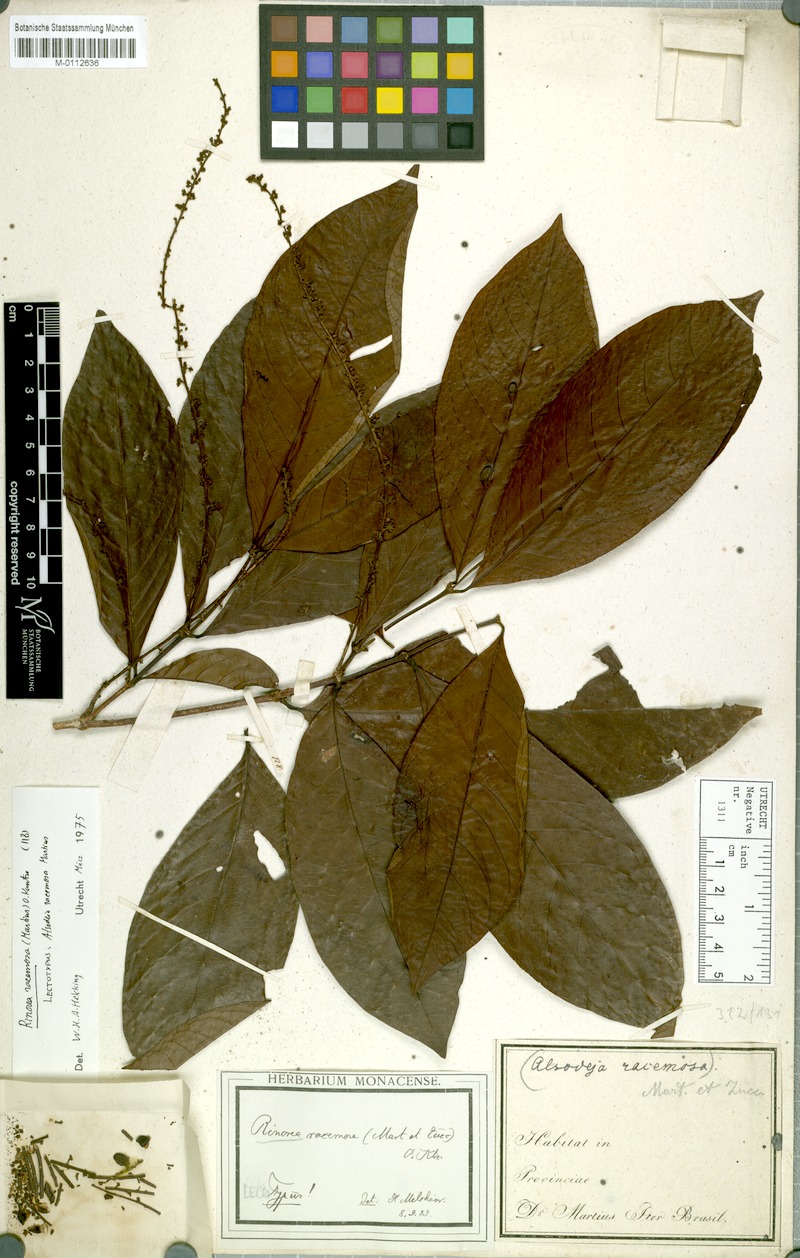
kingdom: Plantae
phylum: Tracheophyta
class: Magnoliopsida
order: Malpighiales
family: Violaceae
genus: Rinorea
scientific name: Rinorea racemosa
